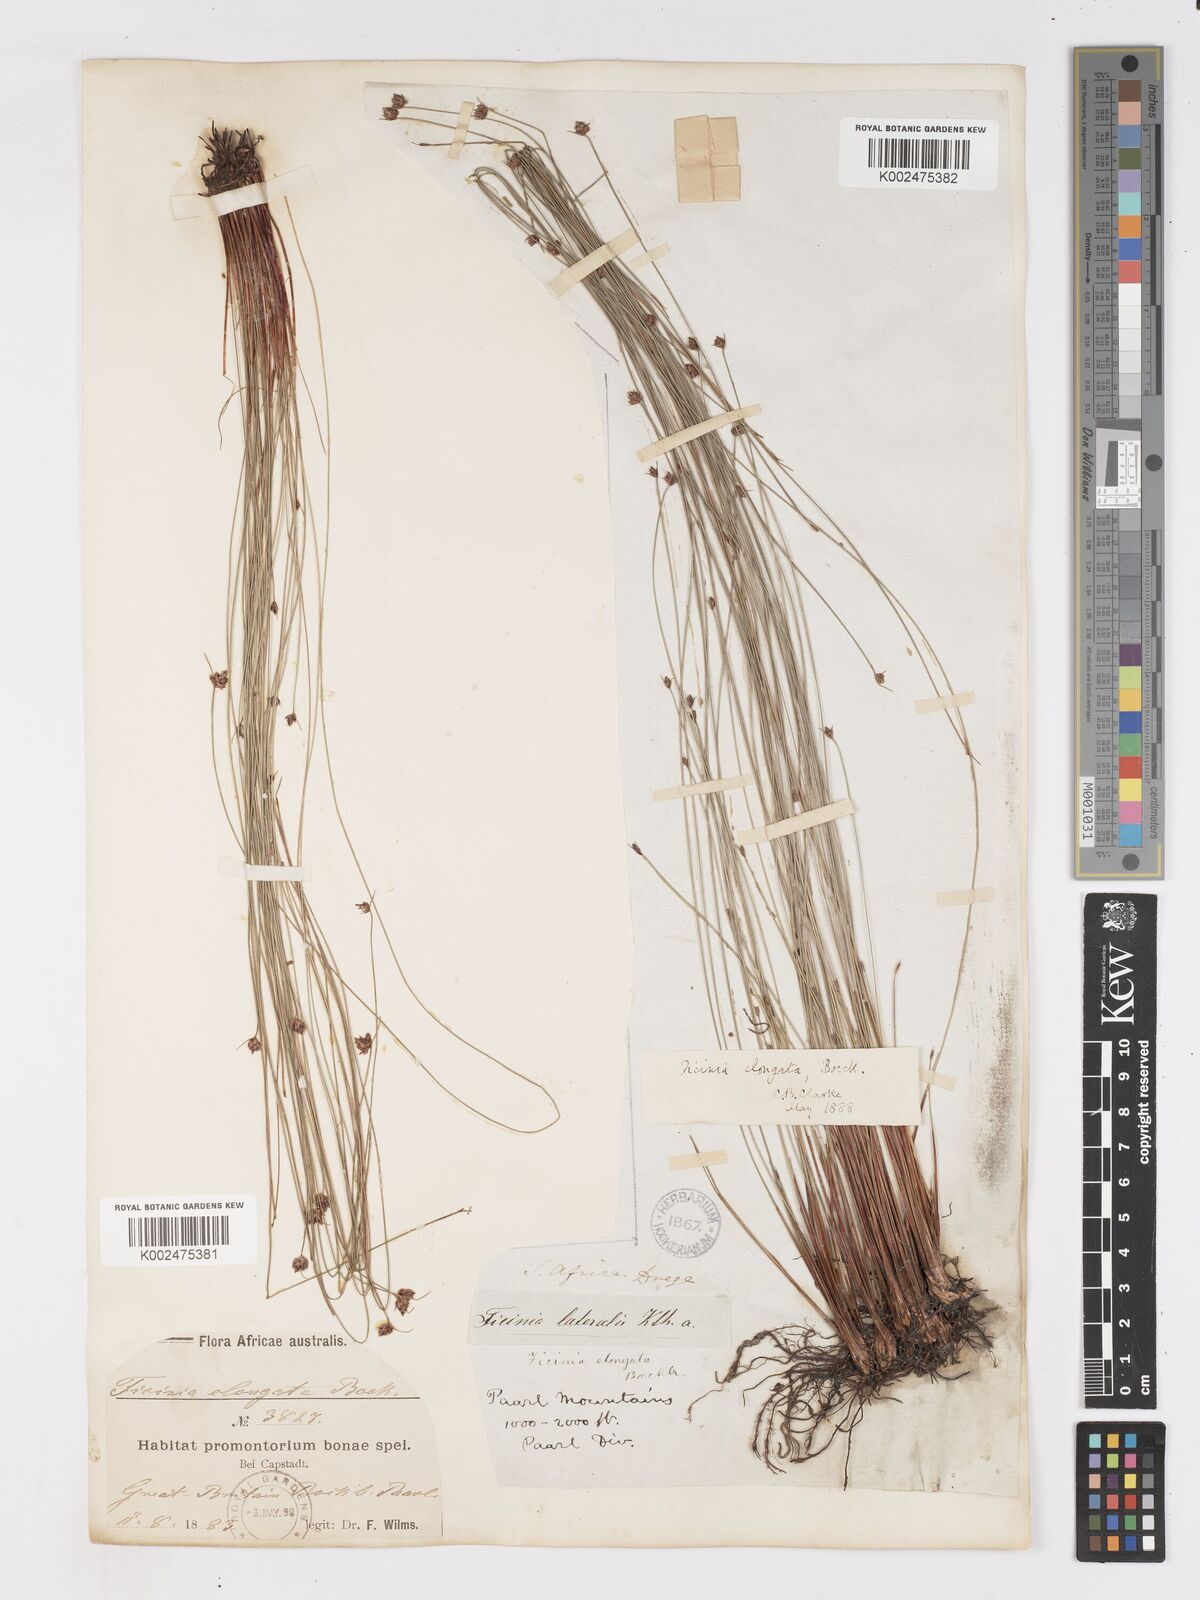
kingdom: Plantae
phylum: Tracheophyta
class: Liliopsida
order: Poales
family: Cyperaceae
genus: Ficinia
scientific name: Ficinia acuminata
